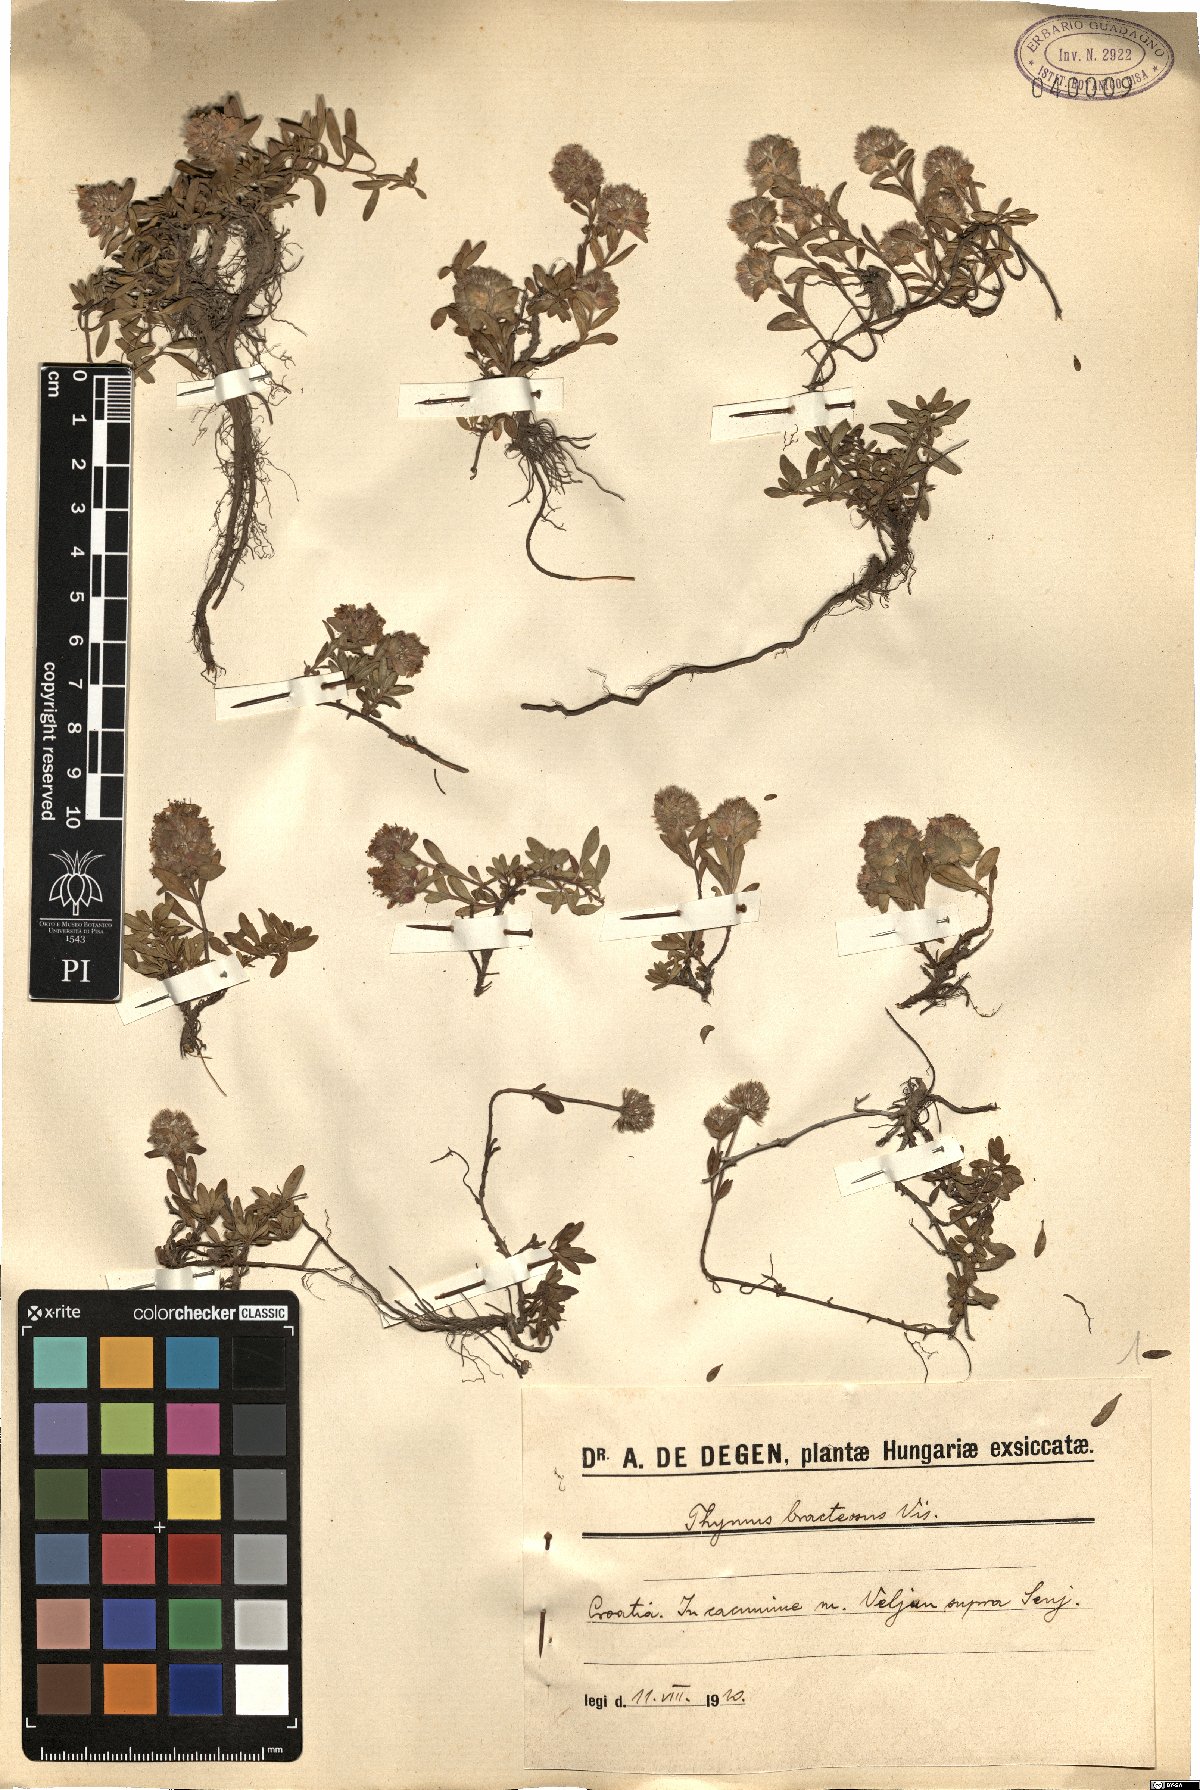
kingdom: Plantae
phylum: Tracheophyta
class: Magnoliopsida
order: Lamiales
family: Lamiaceae
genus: Thymus
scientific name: Thymus bracteosus
